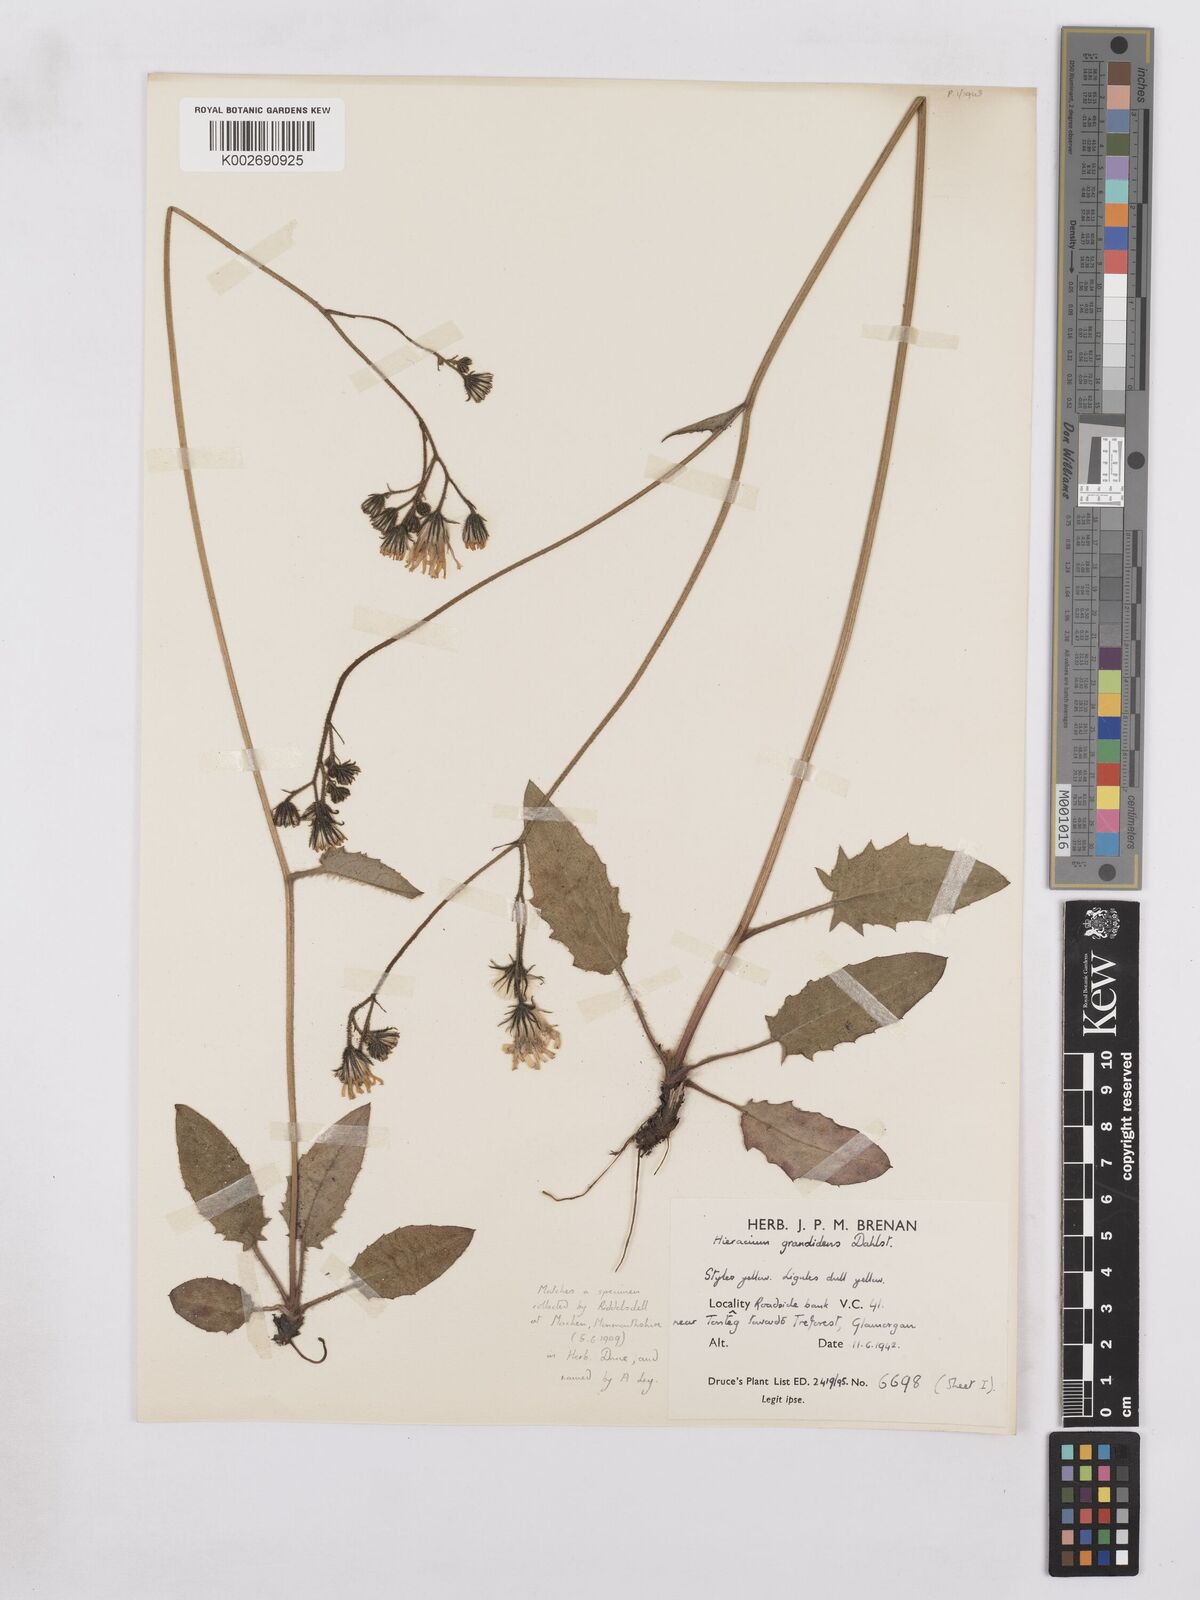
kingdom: Plantae
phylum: Tracheophyta
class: Magnoliopsida
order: Asterales
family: Asteraceae
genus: Hieracium
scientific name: Hieracium murorum
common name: Wall hawkweed
